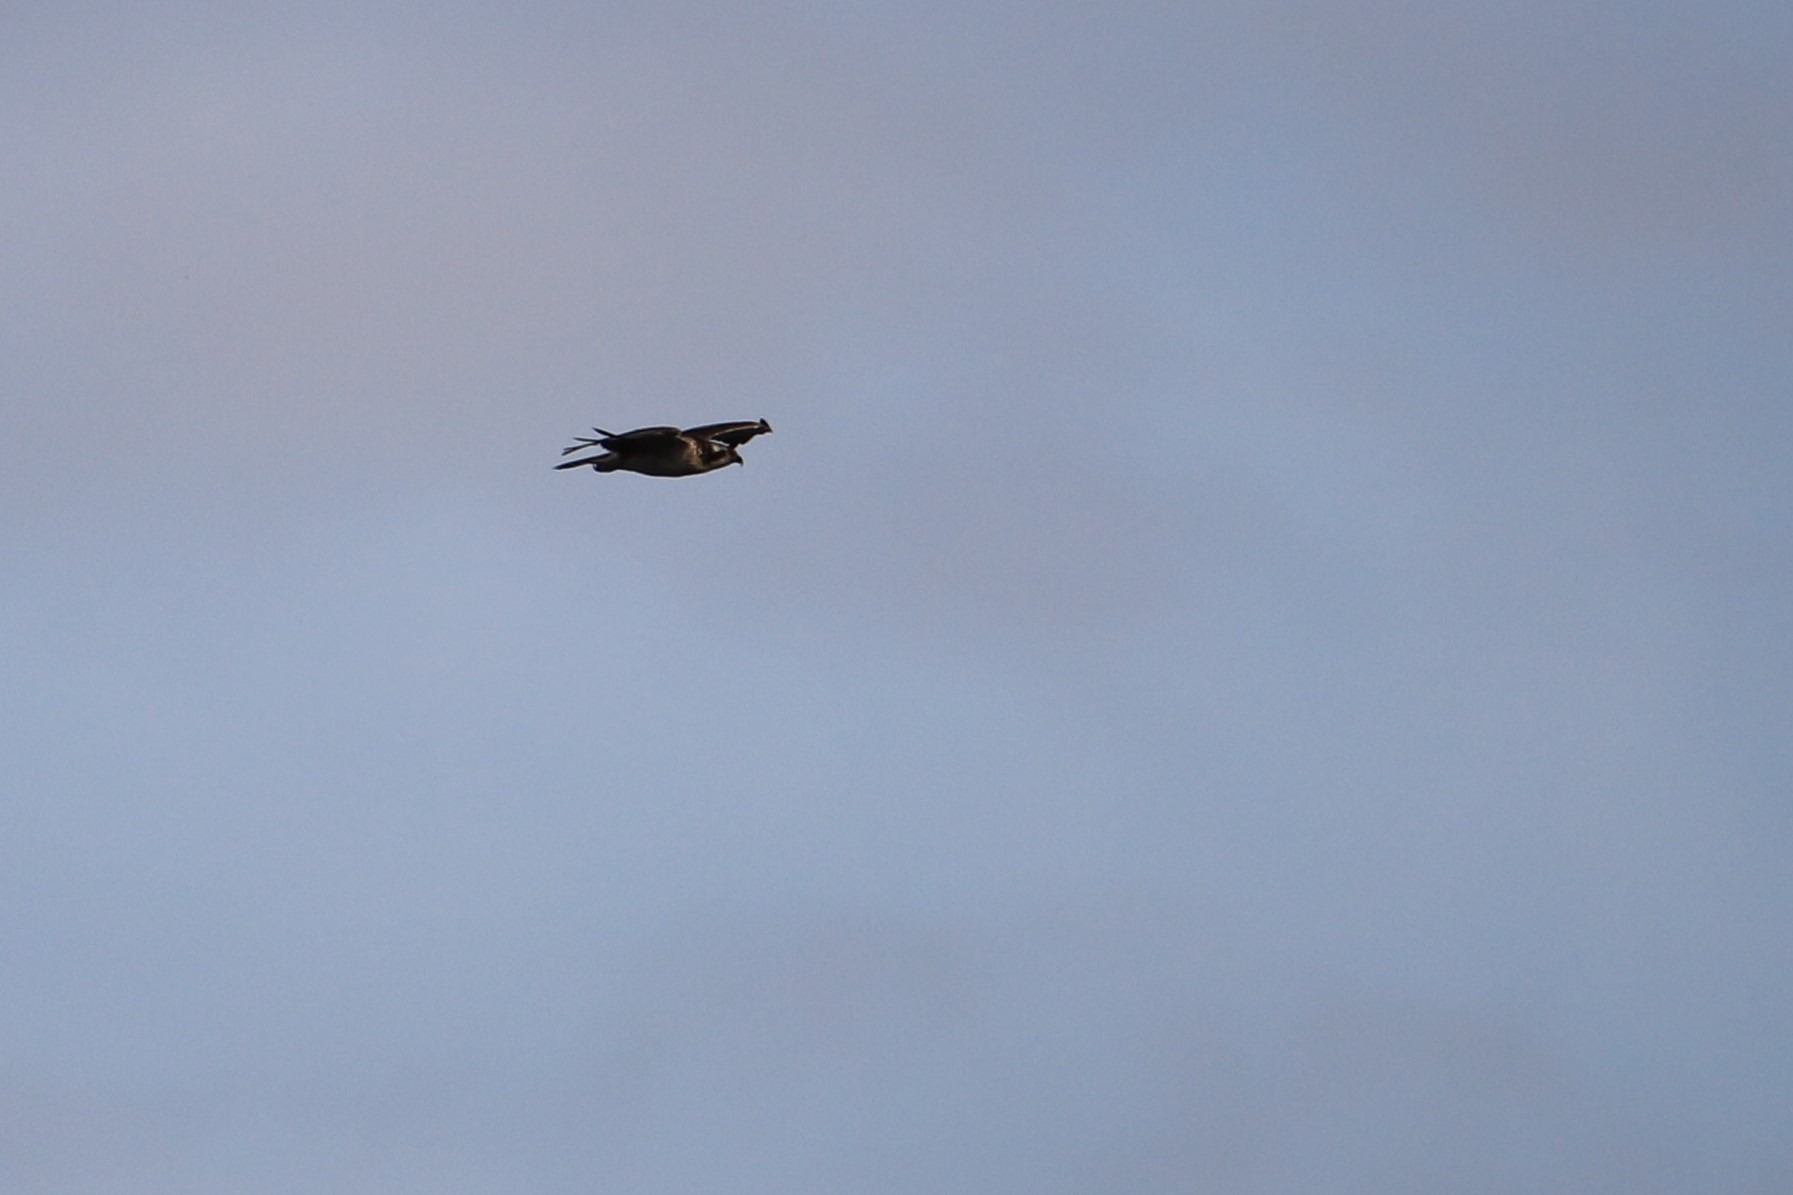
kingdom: Animalia
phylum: Chordata
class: Aves
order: Accipitriformes
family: Pandionidae
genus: Pandion
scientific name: Pandion haliaetus
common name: Fiskeørn
